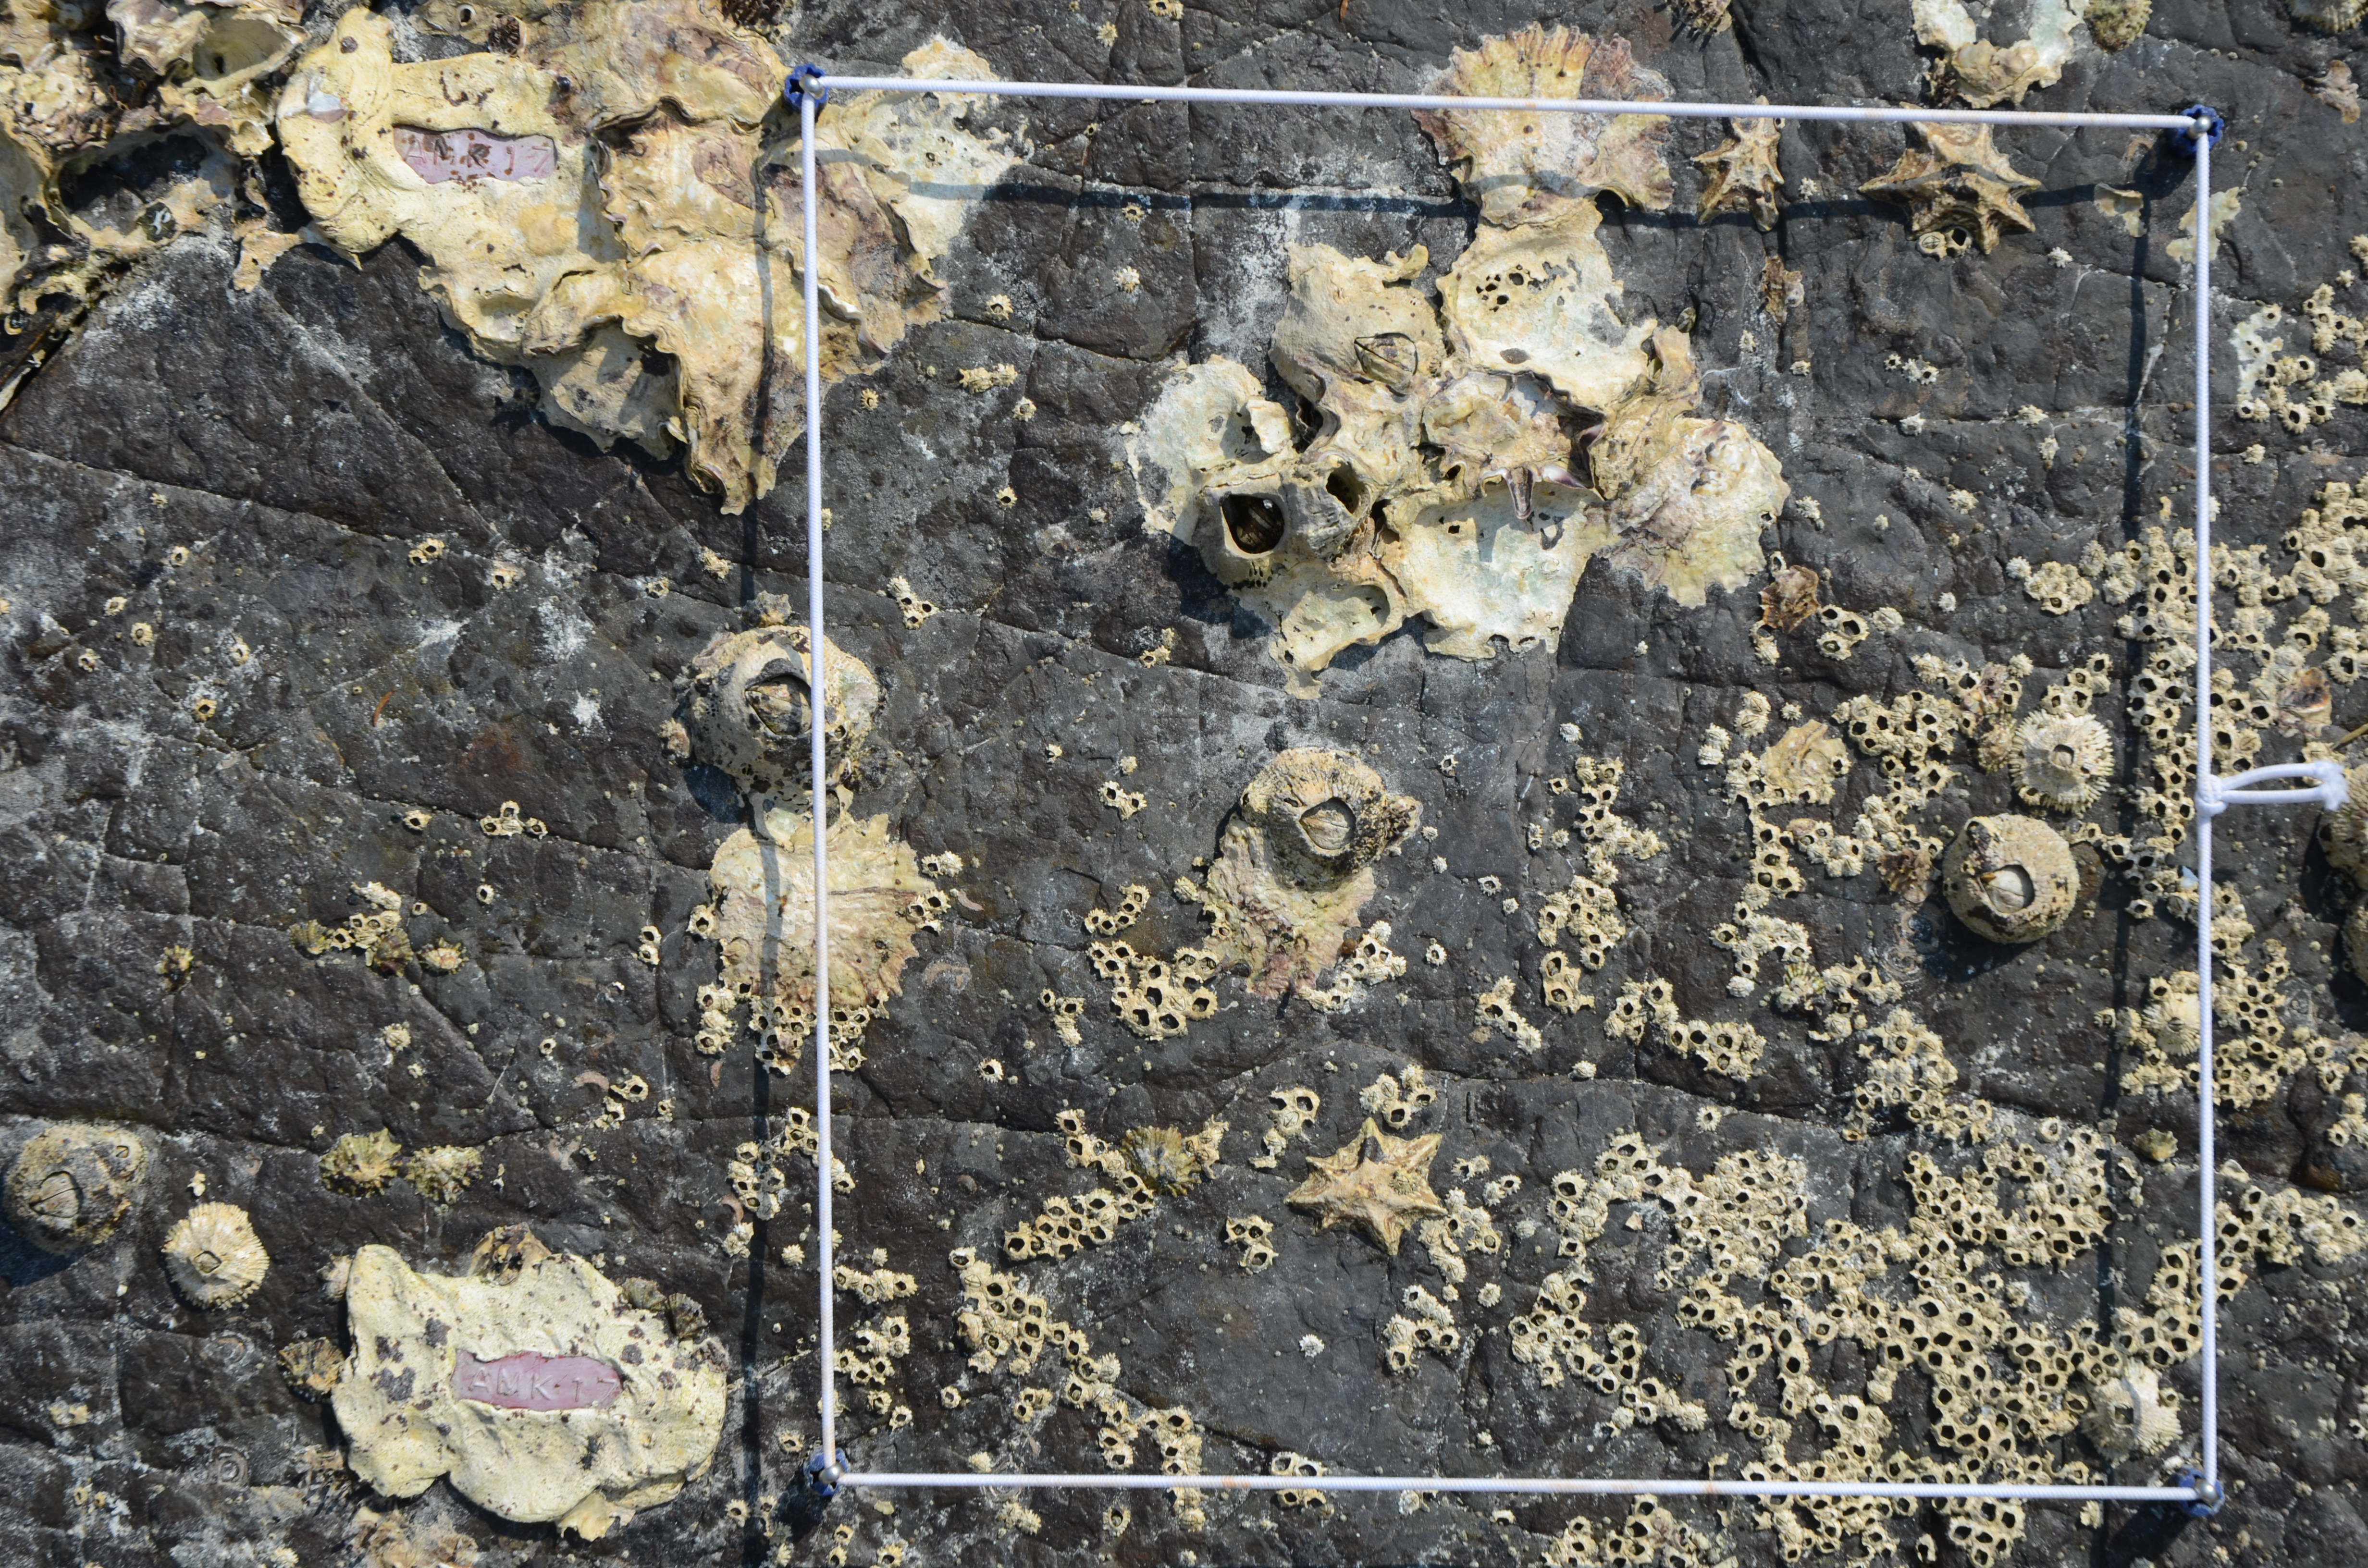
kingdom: Animalia
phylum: Arthropoda
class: Maxillopoda
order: Sessilia
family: Chthamalidae
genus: Chthamalus
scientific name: Chthamalus challengeri
